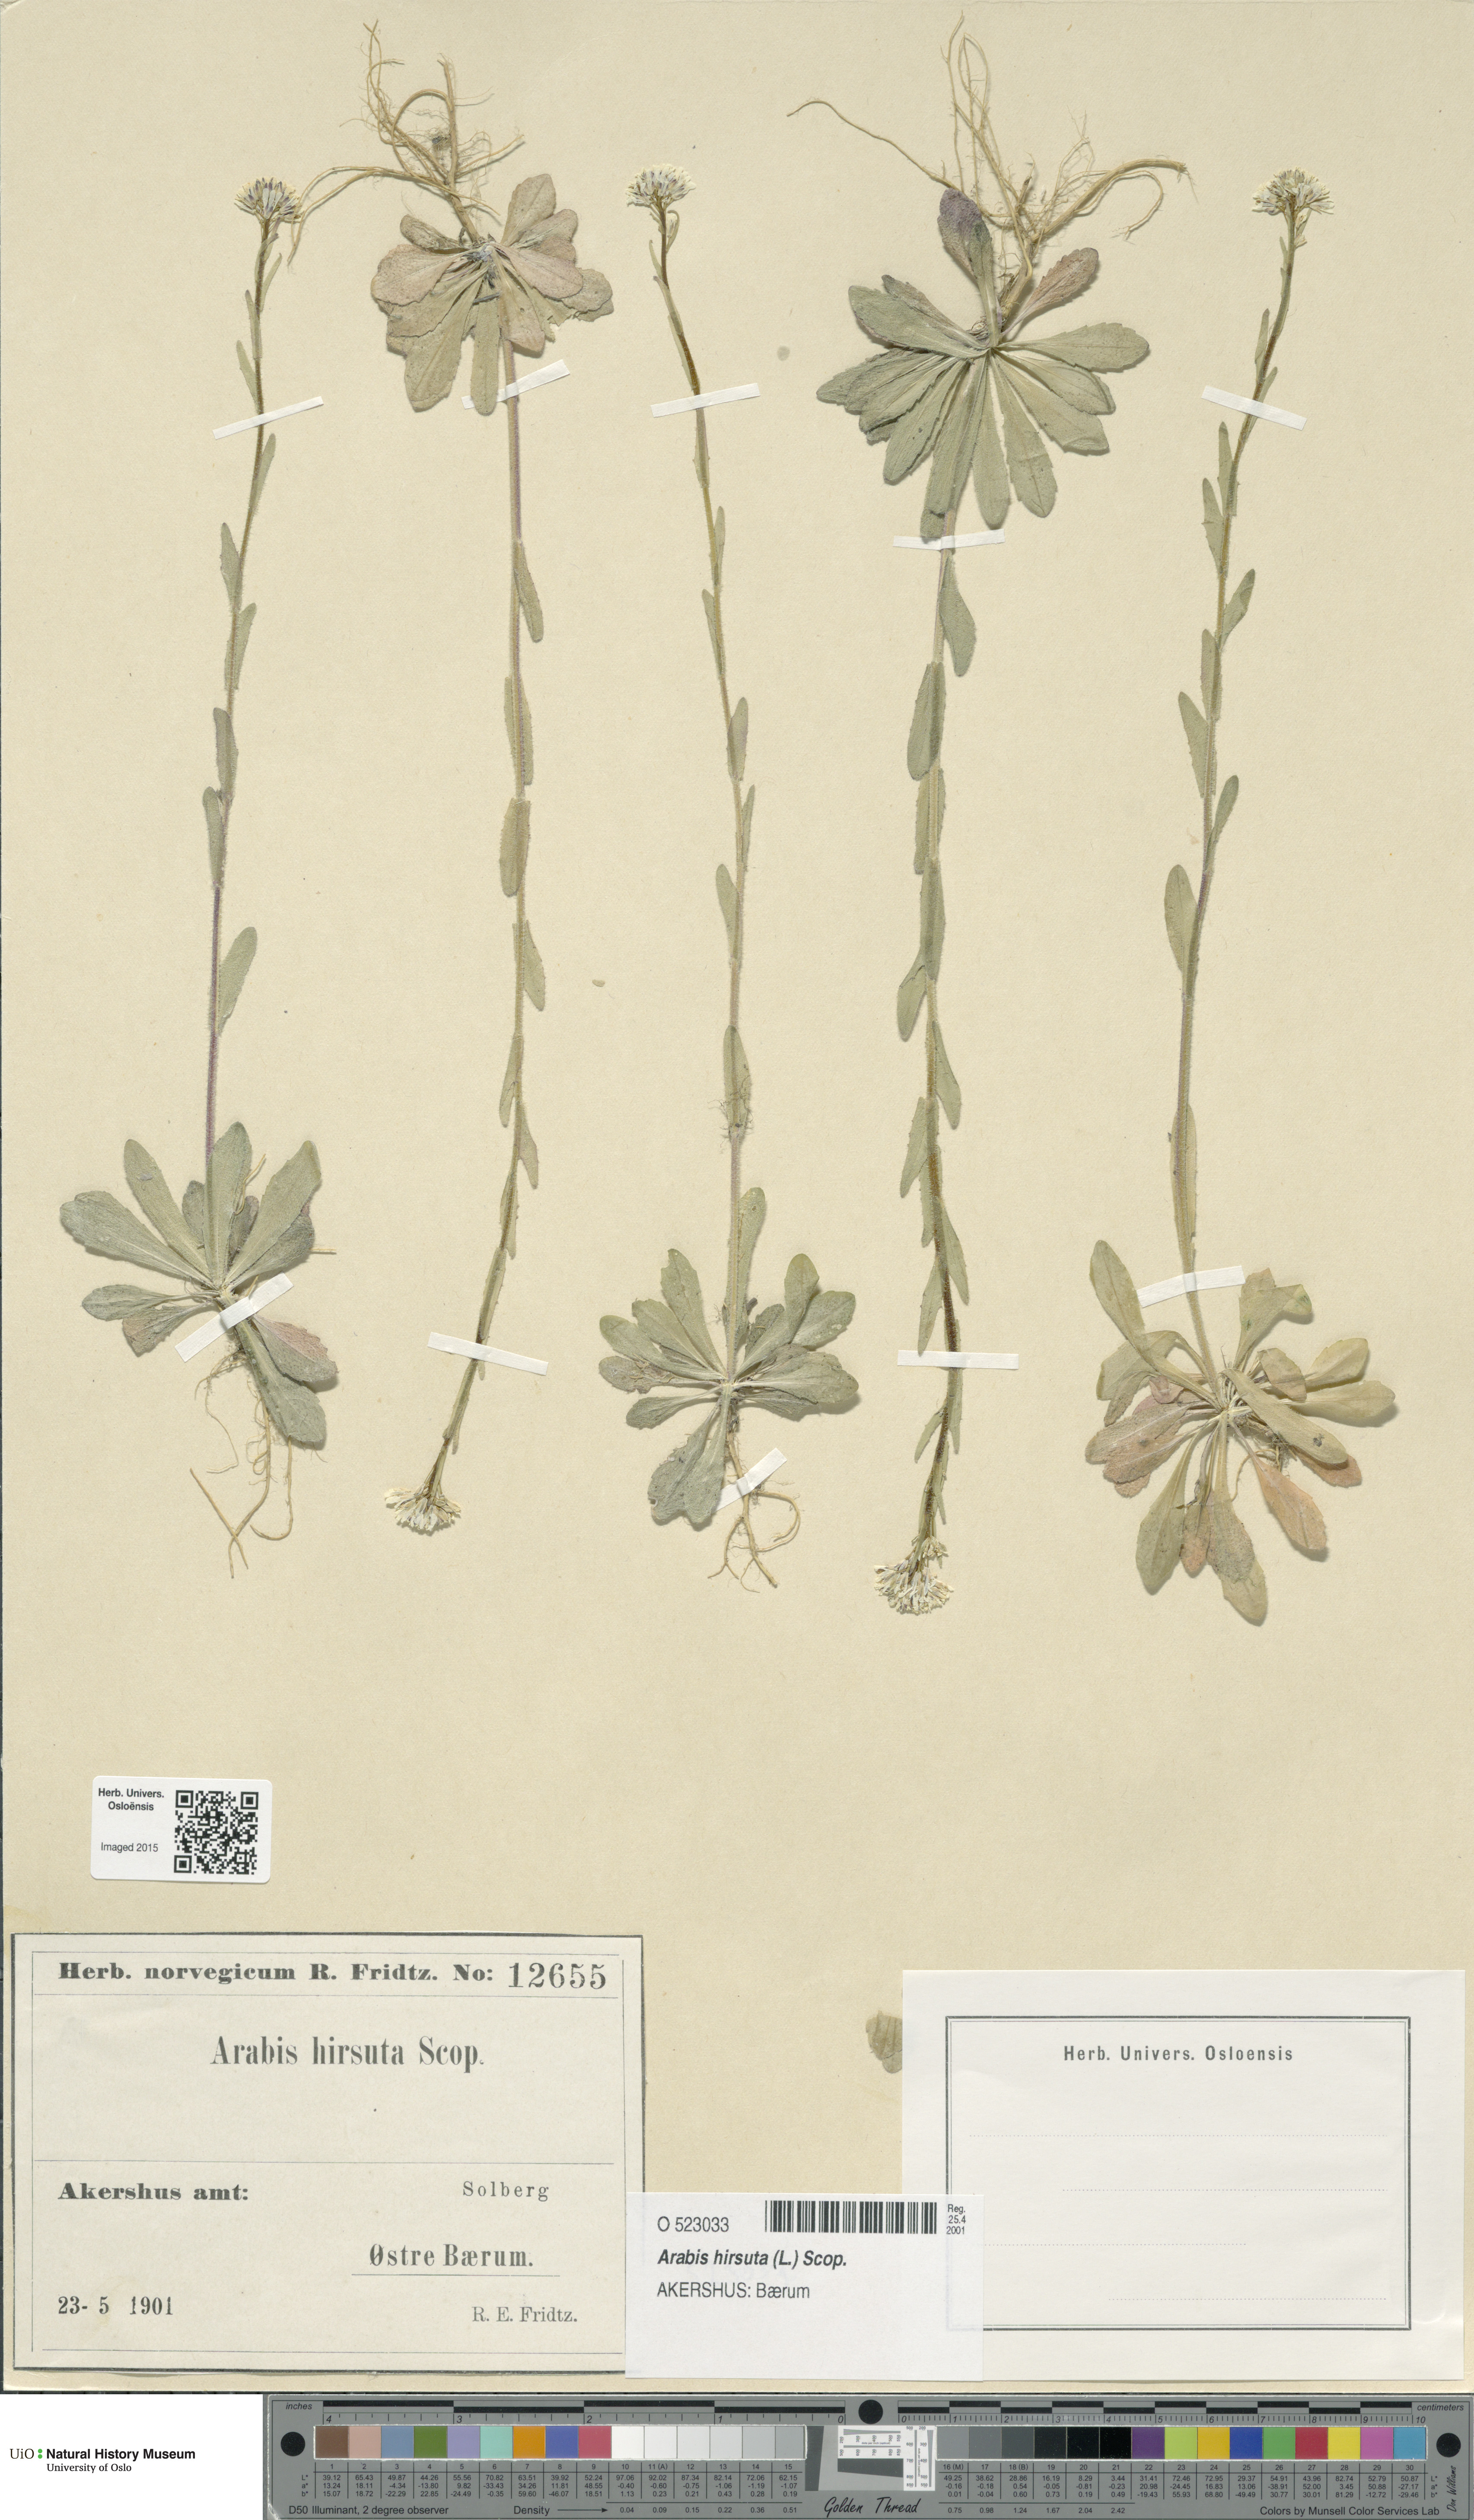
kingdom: Plantae
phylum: Tracheophyta
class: Magnoliopsida
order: Brassicales
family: Brassicaceae
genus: Arabis
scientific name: Arabis hirsuta
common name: Hairy rock-cress
